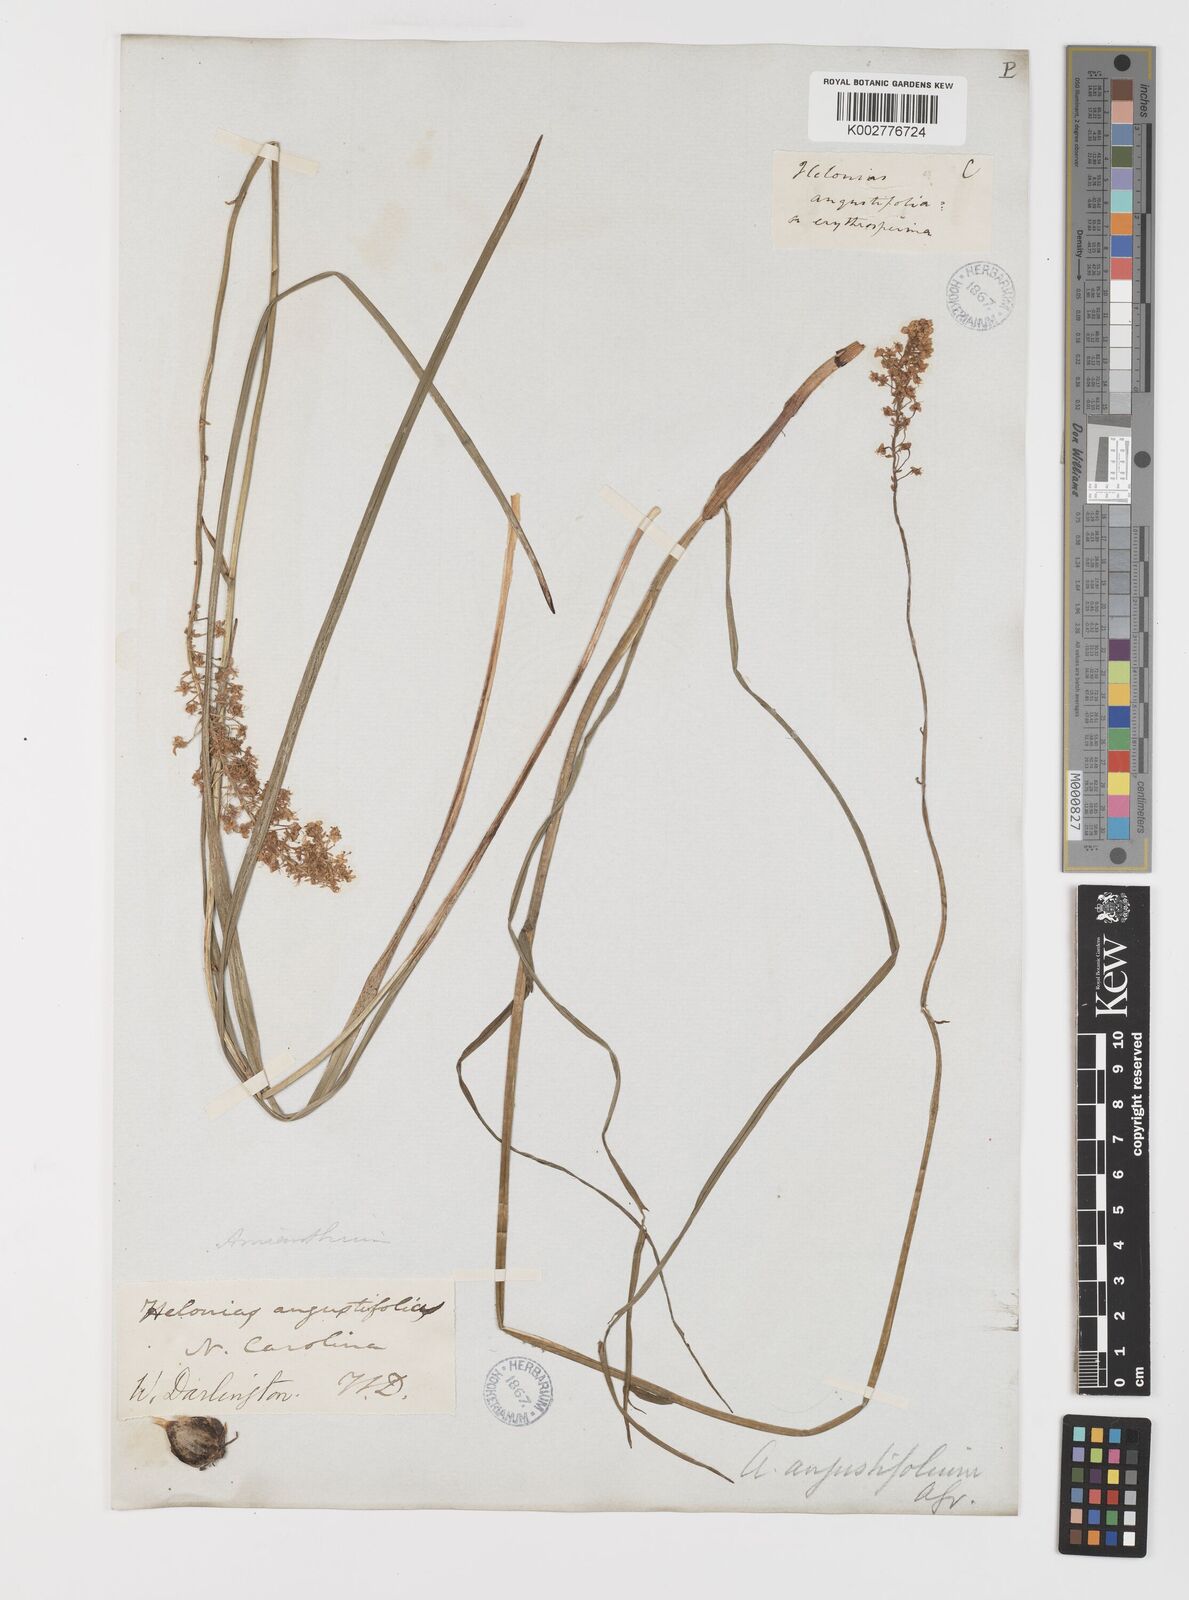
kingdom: Plantae
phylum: Tracheophyta
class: Liliopsida
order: Liliales
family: Melanthiaceae
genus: Stenanthium
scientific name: Stenanthium densum
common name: Crow-poison
